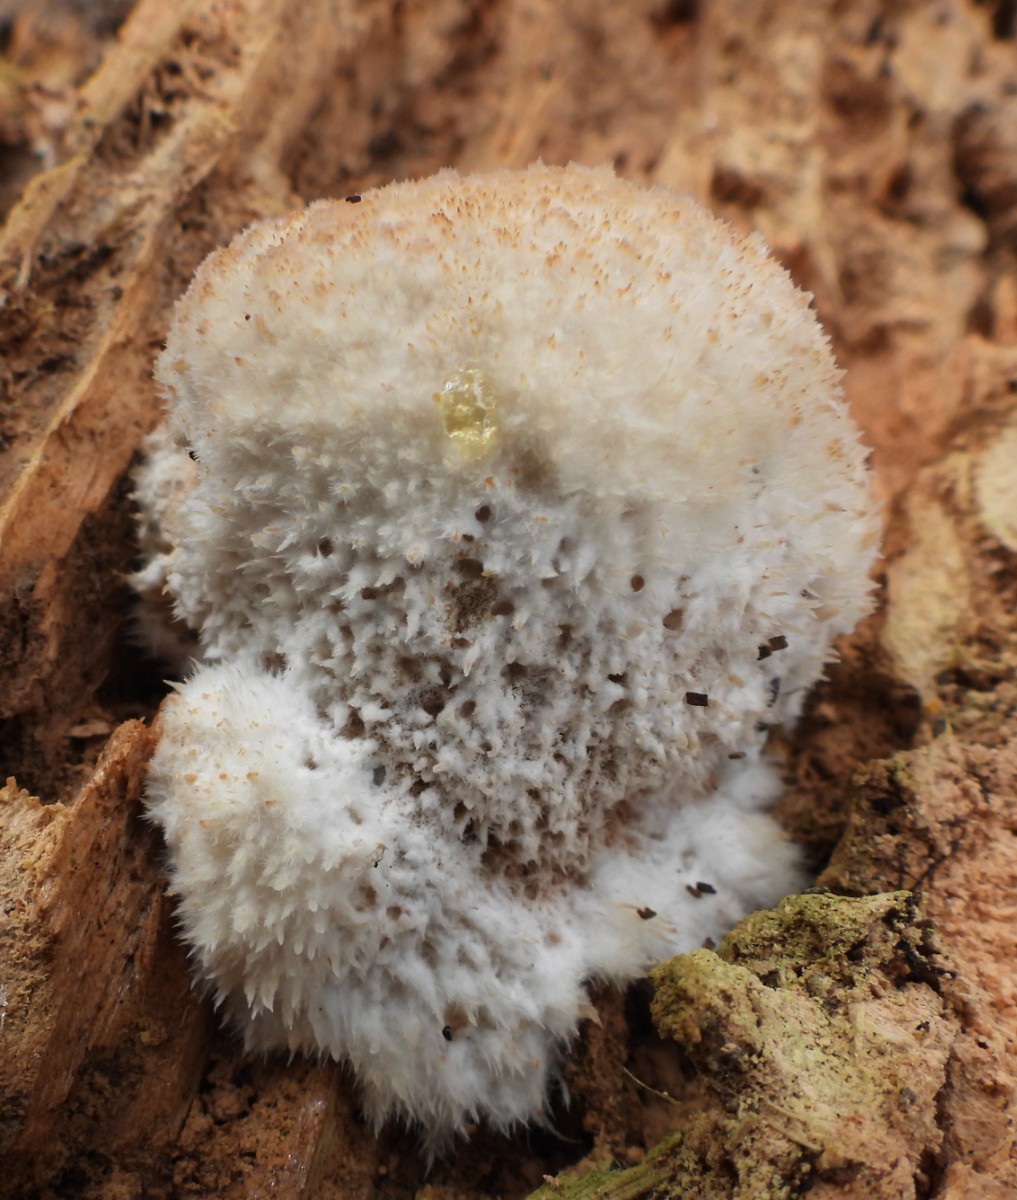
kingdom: Fungi
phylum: Basidiomycota
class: Agaricomycetes
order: Polyporales
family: Dacryobolaceae
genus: Postia
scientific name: Postia ptychogaster
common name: støvende kødporesvamp
